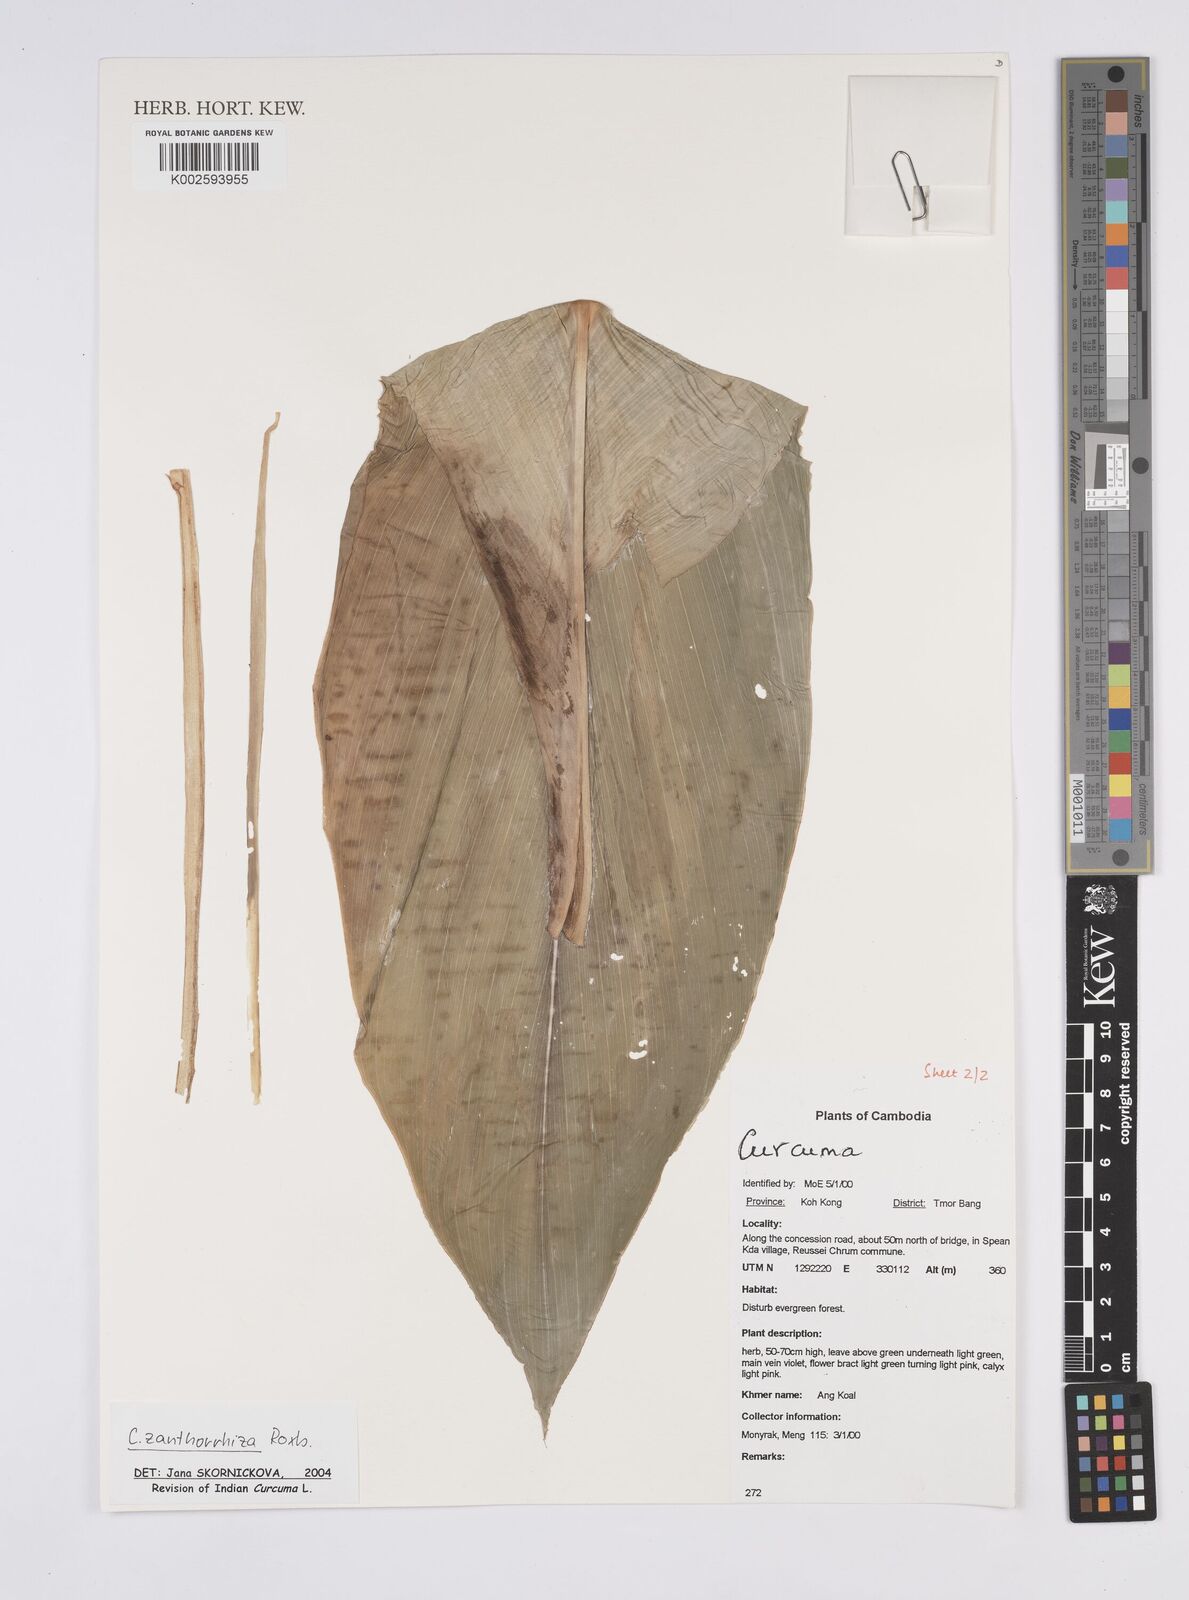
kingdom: Plantae
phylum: Tracheophyta
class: Liliopsida
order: Zingiberales
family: Zingiberaceae
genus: Curcuma
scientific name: Curcuma zanthorrhiza
